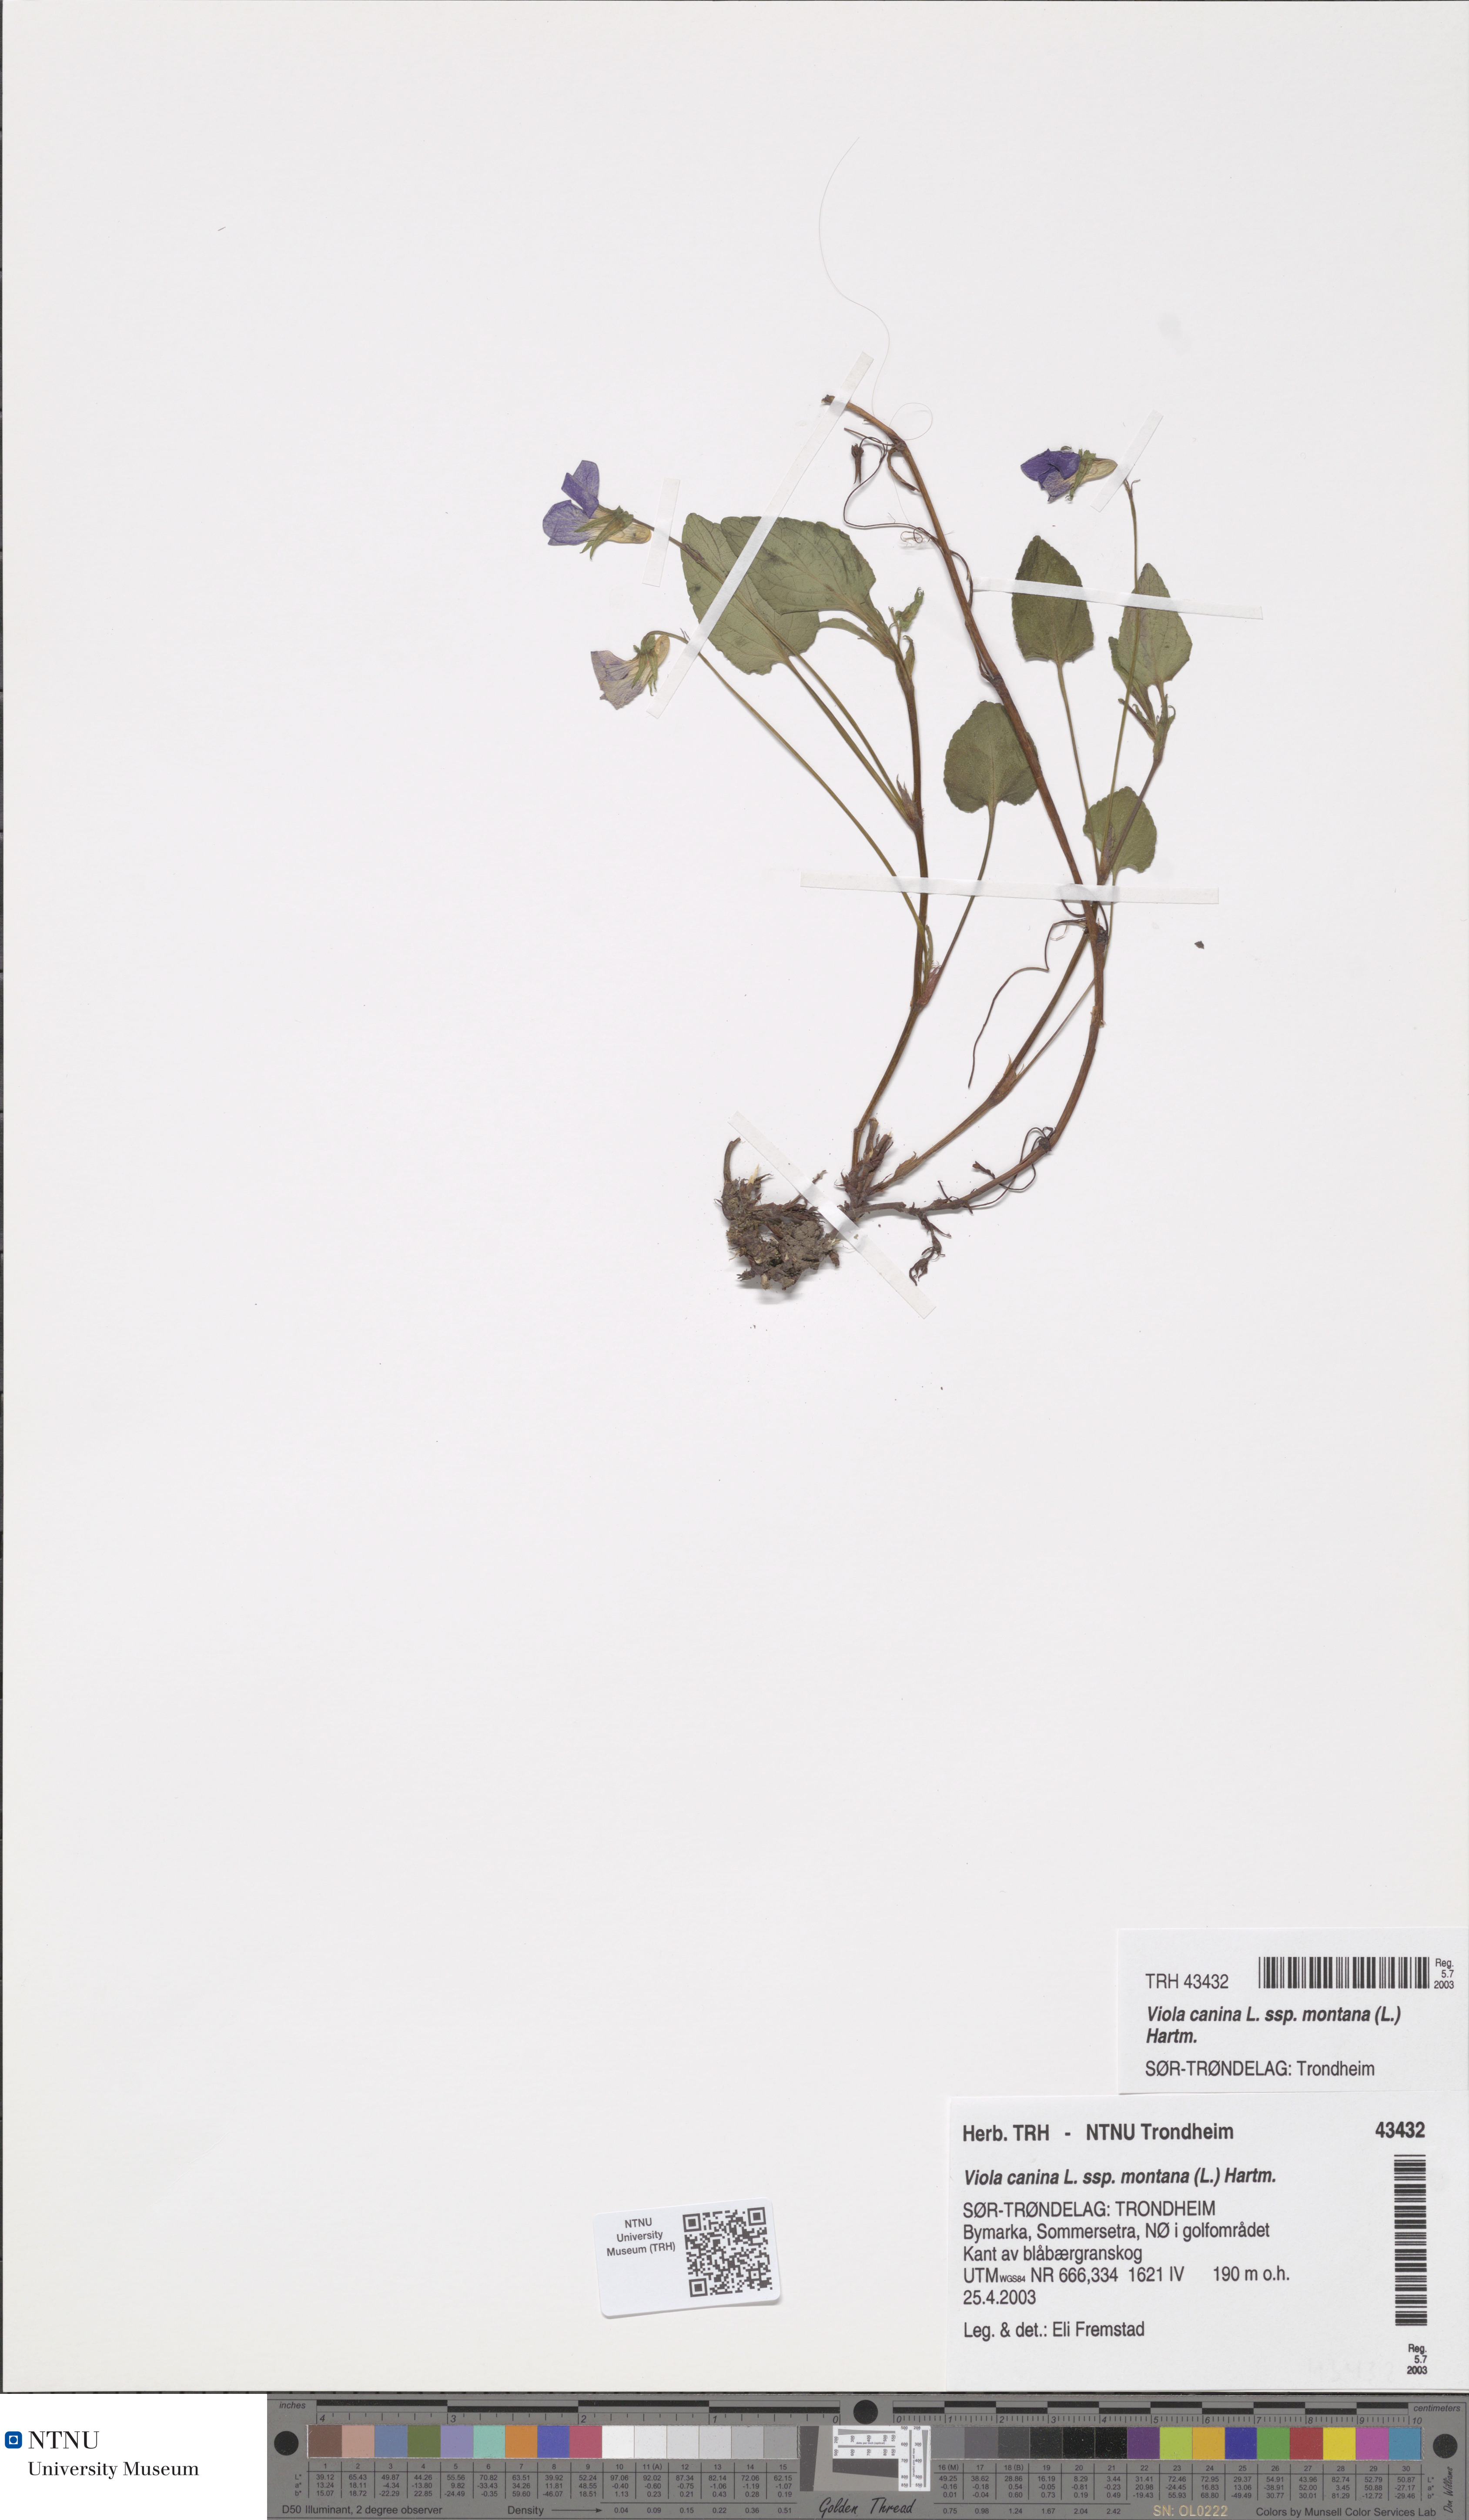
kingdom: Plantae
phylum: Tracheophyta
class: Magnoliopsida
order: Malpighiales
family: Violaceae
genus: Viola
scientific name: Viola ruppii
